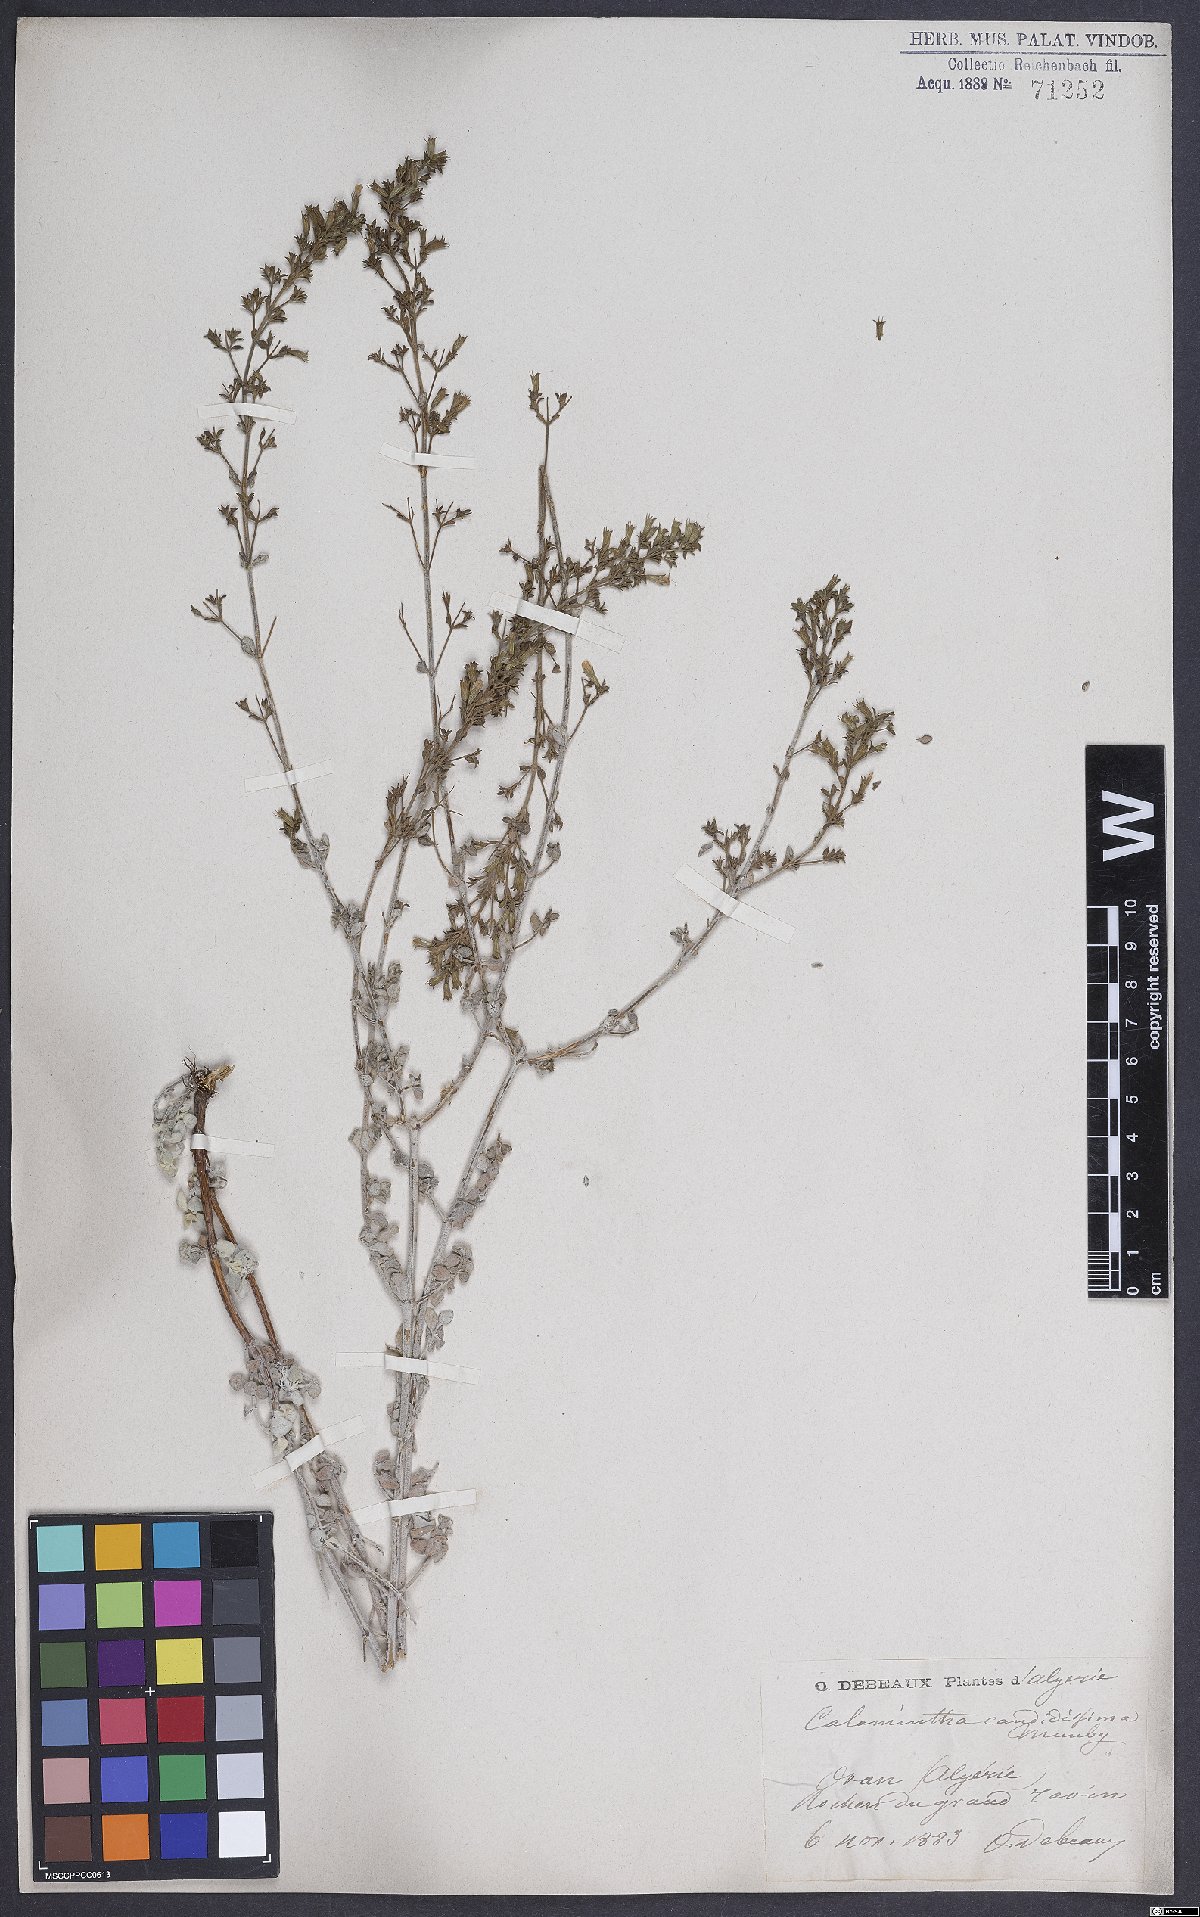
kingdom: Plantae
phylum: Tracheophyta
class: Magnoliopsida
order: Lamiales
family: Lamiaceae
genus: Calamintha
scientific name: Calamintha
